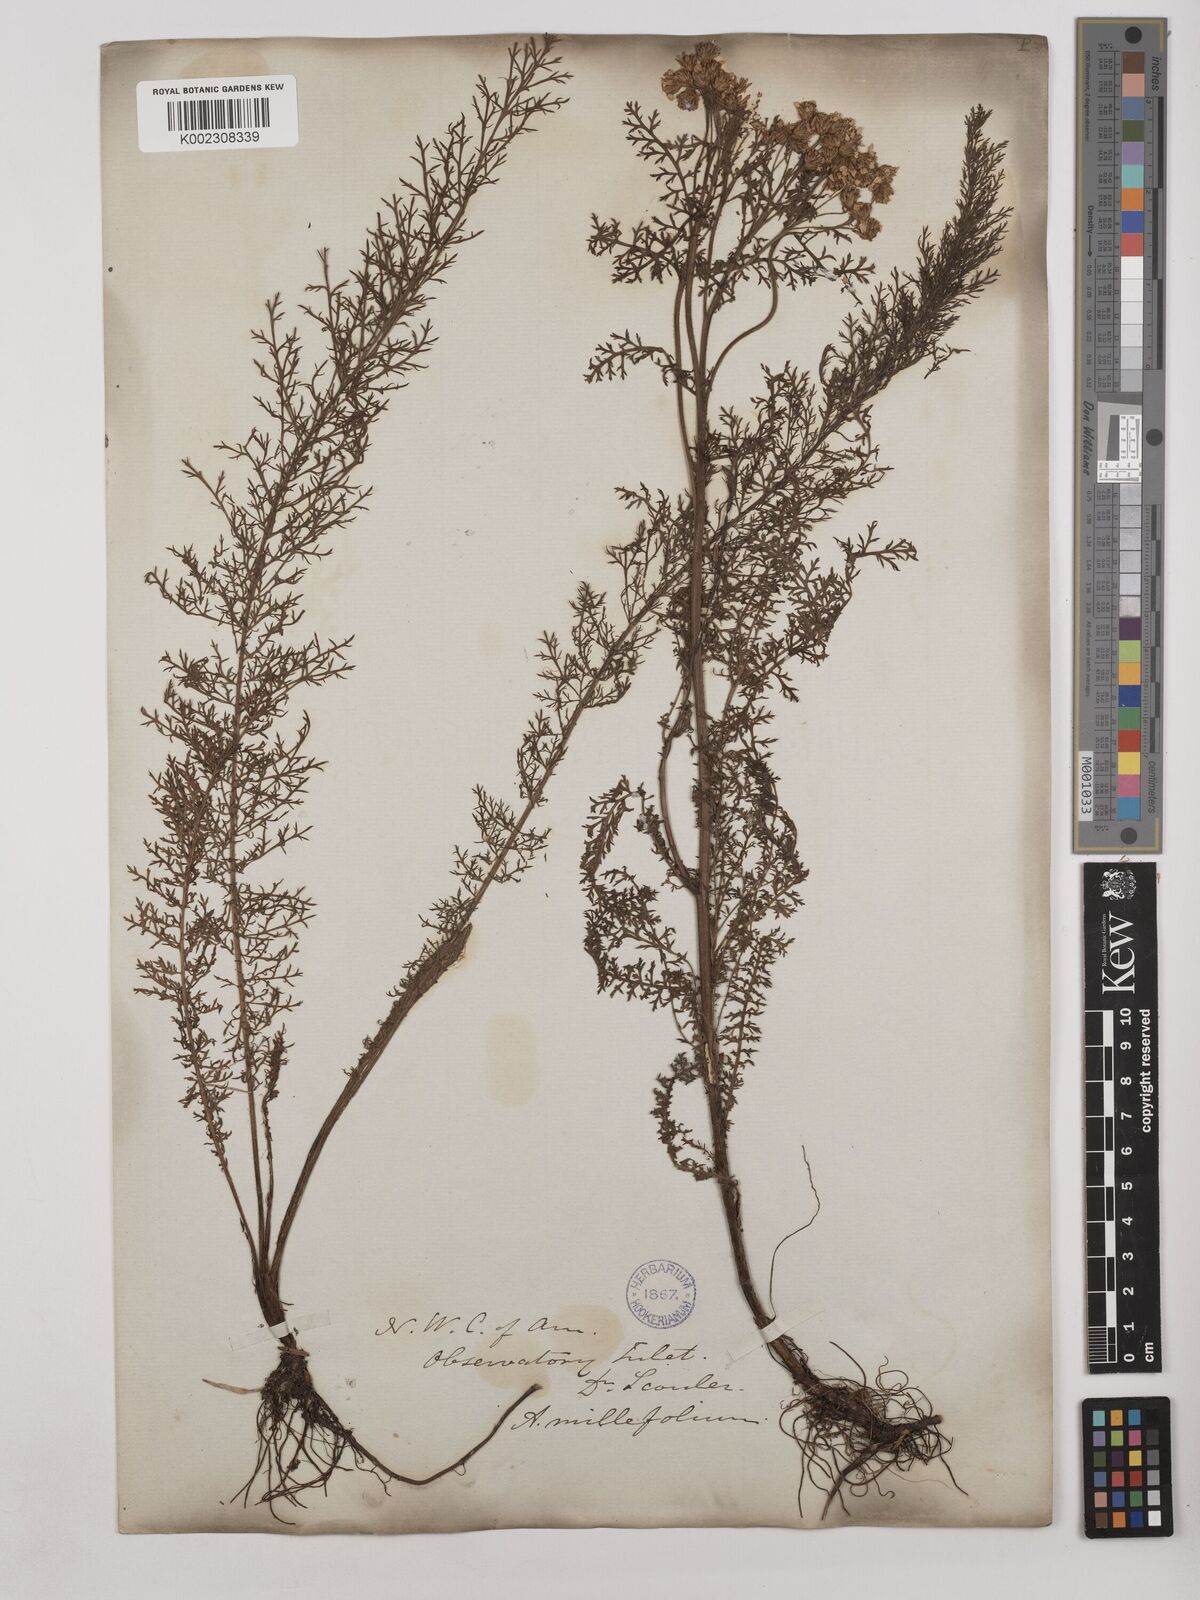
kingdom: Plantae
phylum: Tracheophyta
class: Magnoliopsida
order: Asterales
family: Asteraceae
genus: Achillea
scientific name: Achillea millefolium
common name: Yarrow
